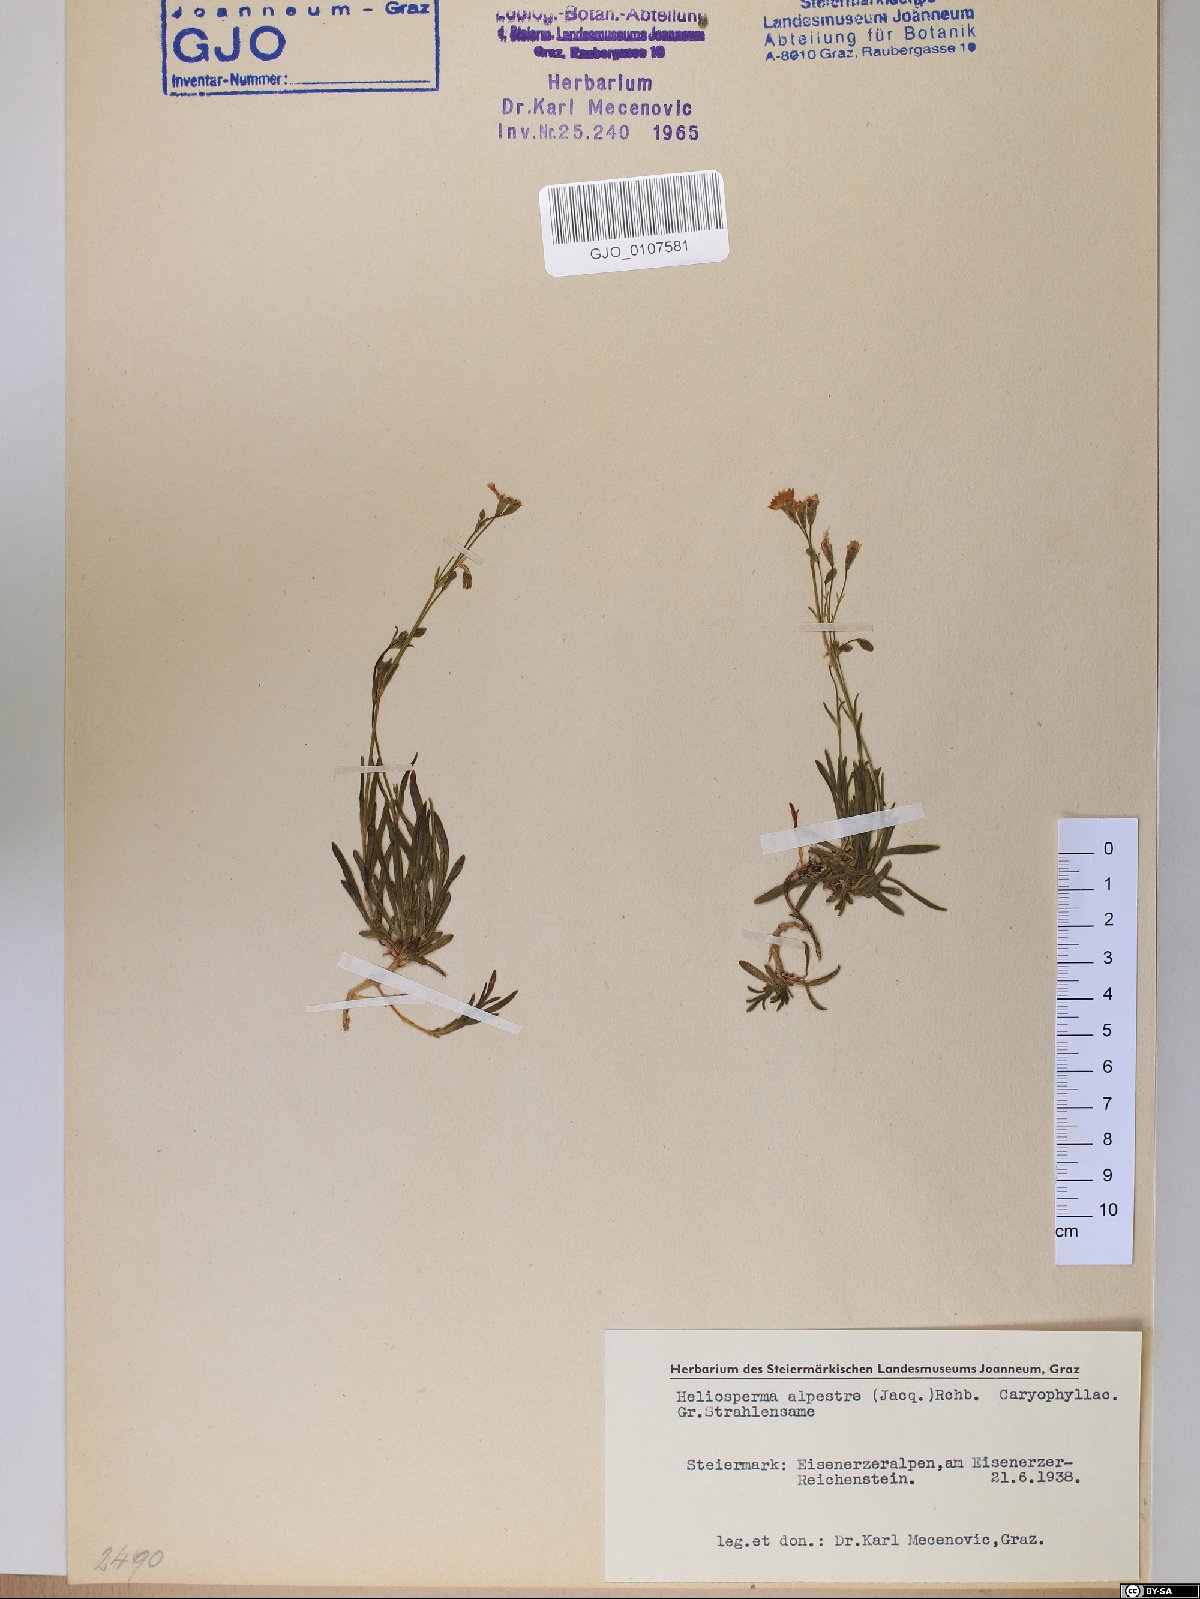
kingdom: Plantae
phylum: Tracheophyta
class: Magnoliopsida
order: Caryophyllales
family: Caryophyllaceae
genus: Heliosperma
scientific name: Heliosperma alpestre
